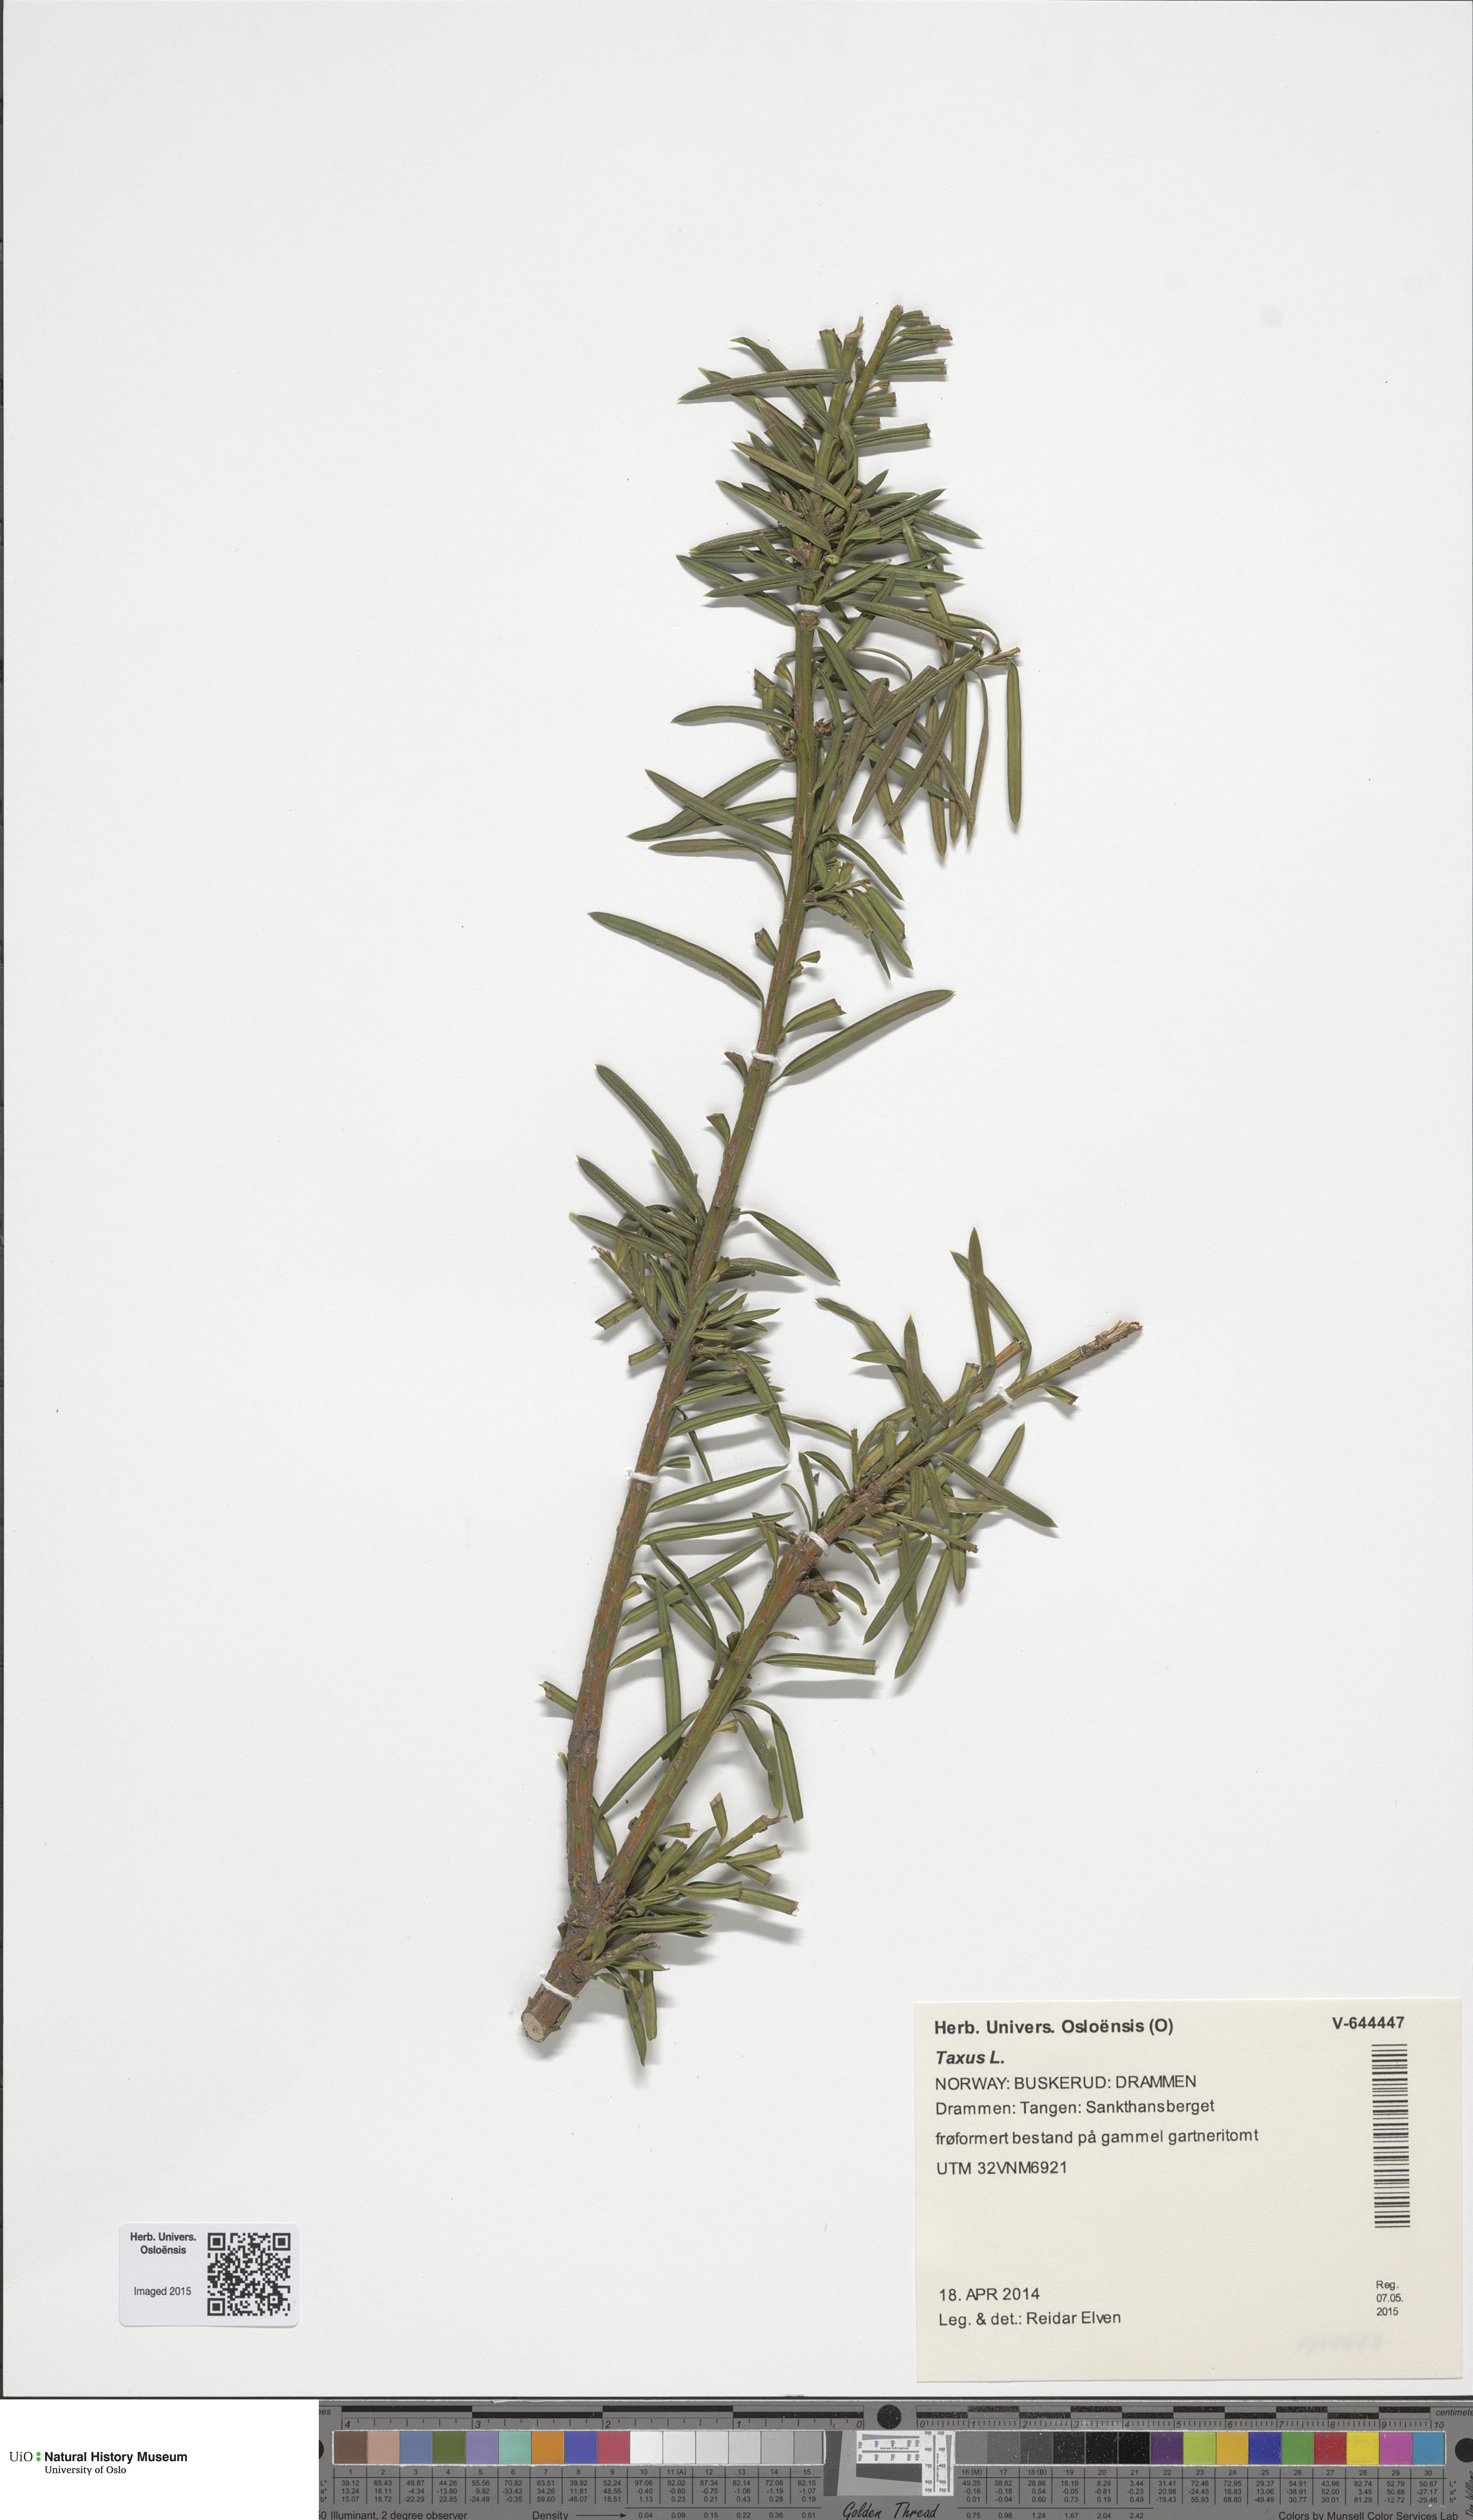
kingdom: Plantae
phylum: Tracheophyta
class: Pinopsida
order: Pinales
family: Taxaceae
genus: Taxus
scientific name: Taxus baccata
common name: Yew
